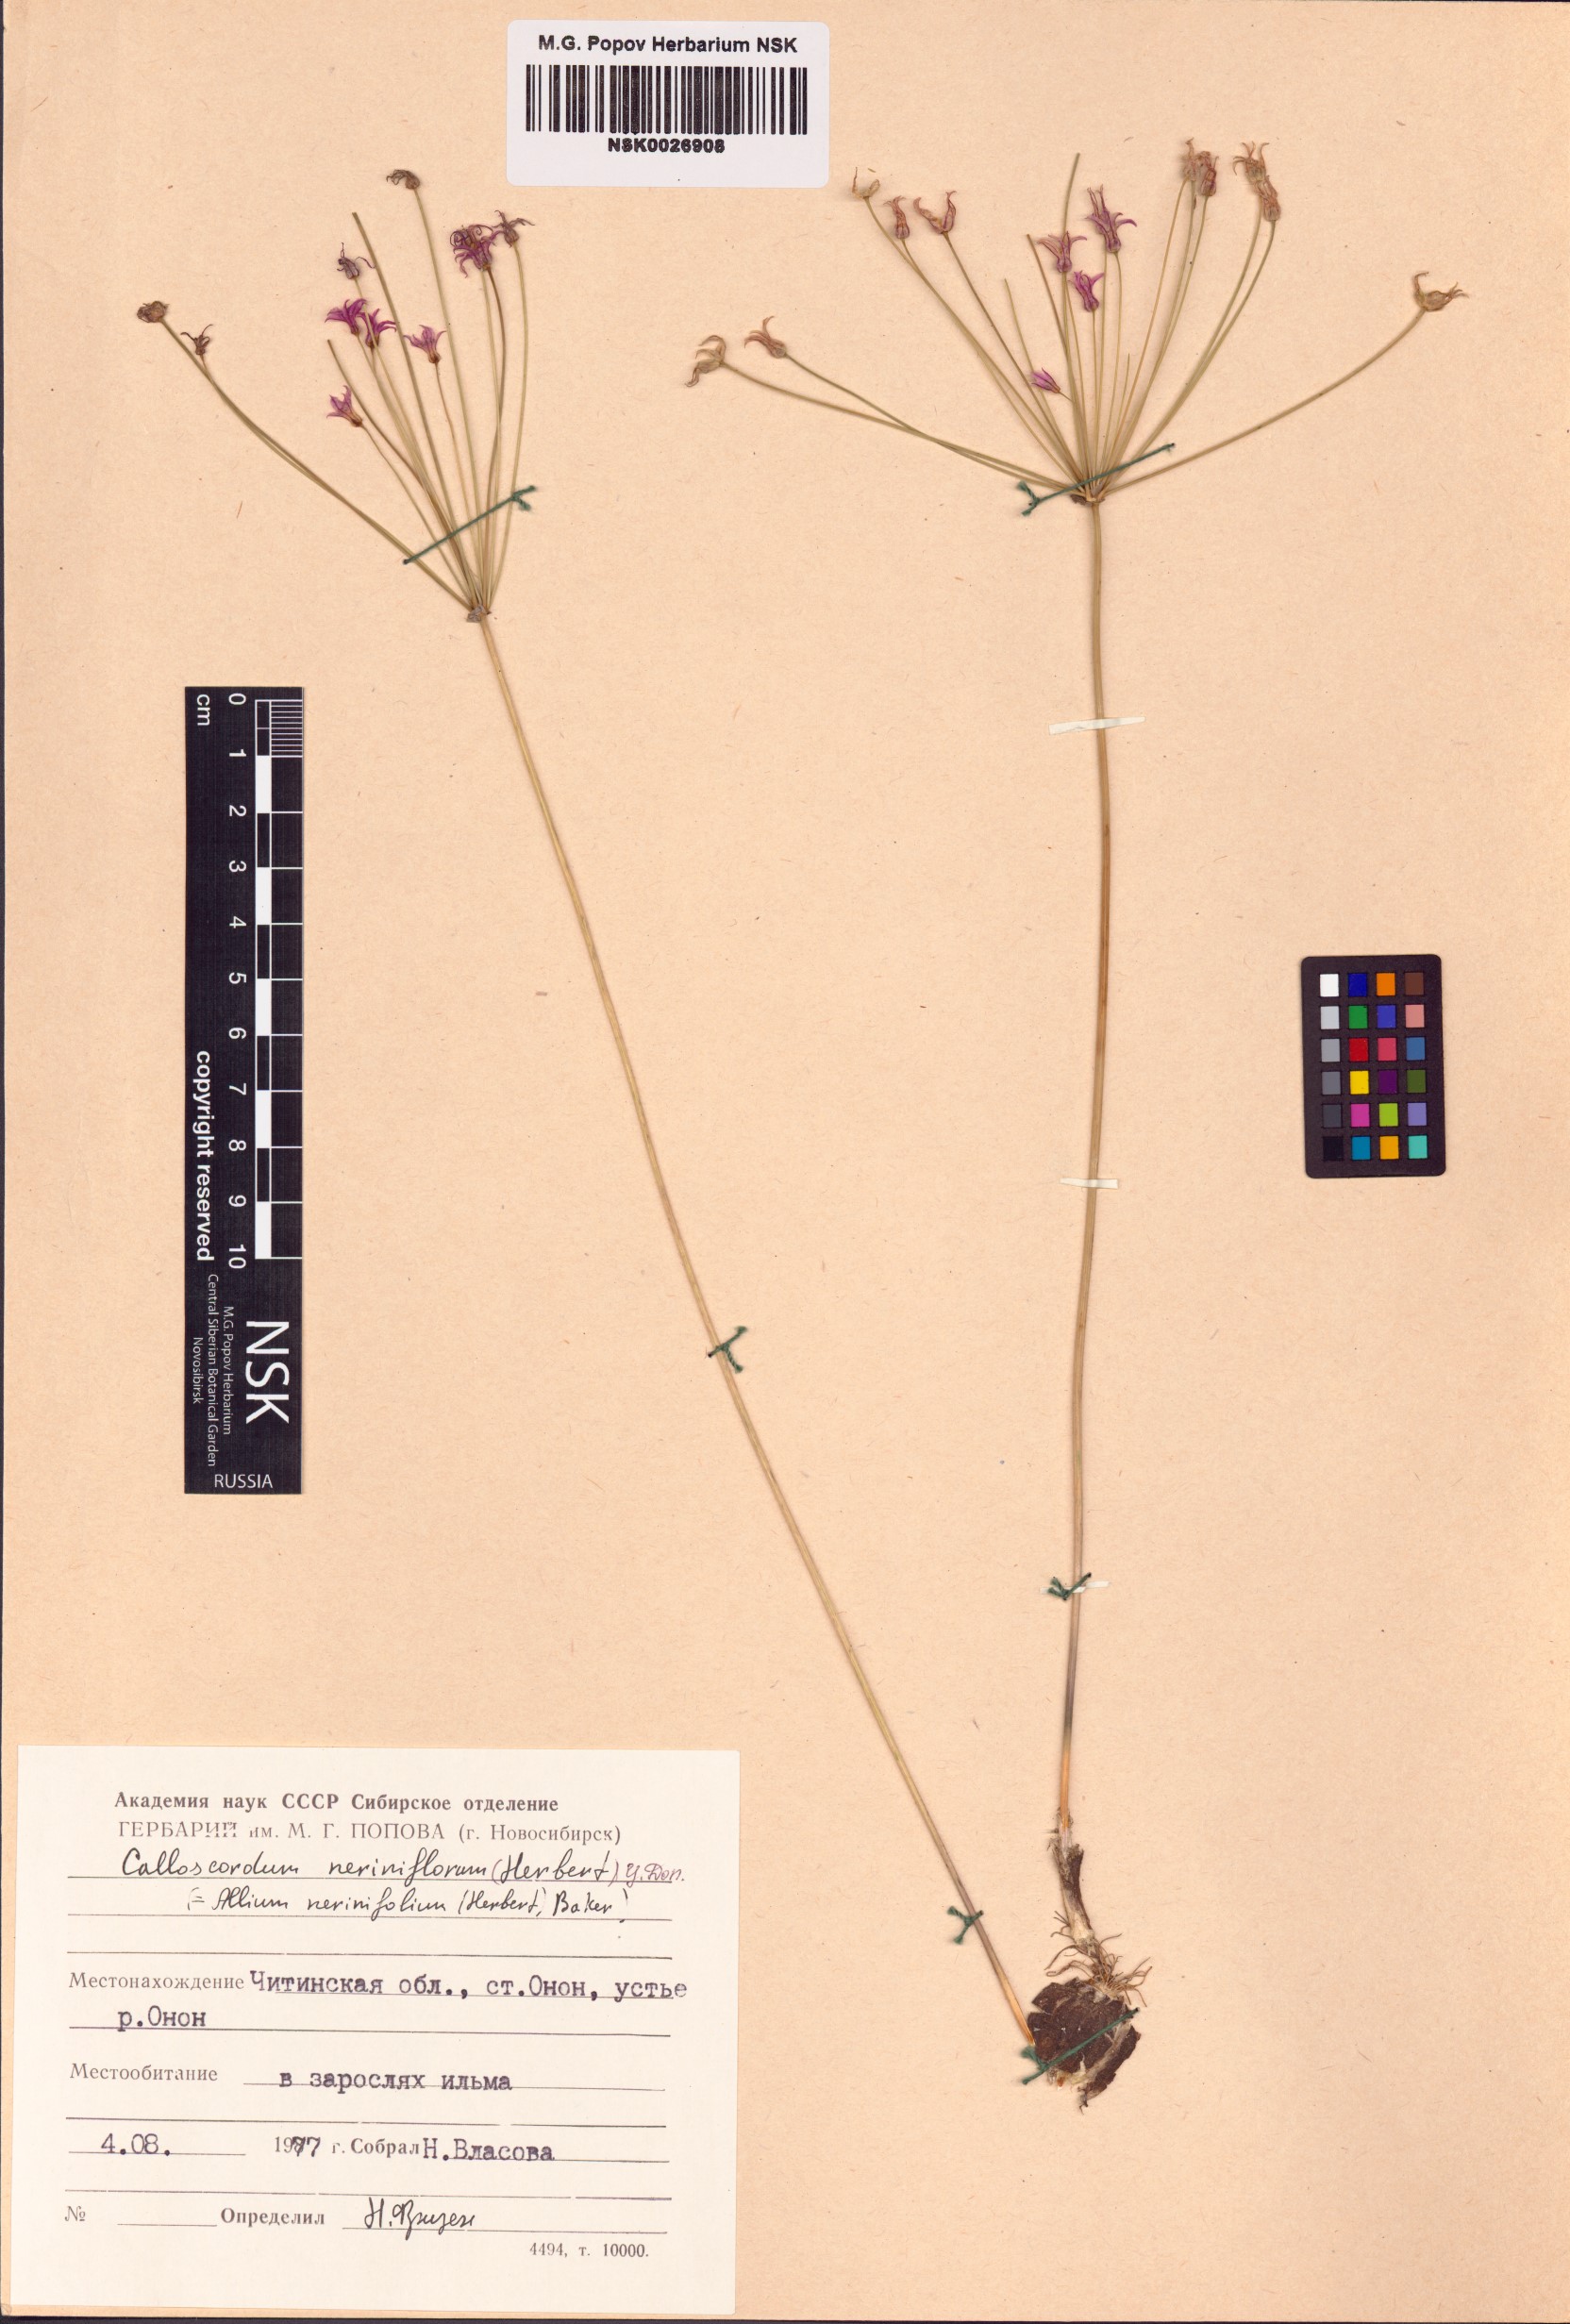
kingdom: Plantae
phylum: Tracheophyta
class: Liliopsida
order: Asparagales
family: Amaryllidaceae
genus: Allium
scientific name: Allium neriniflorum
